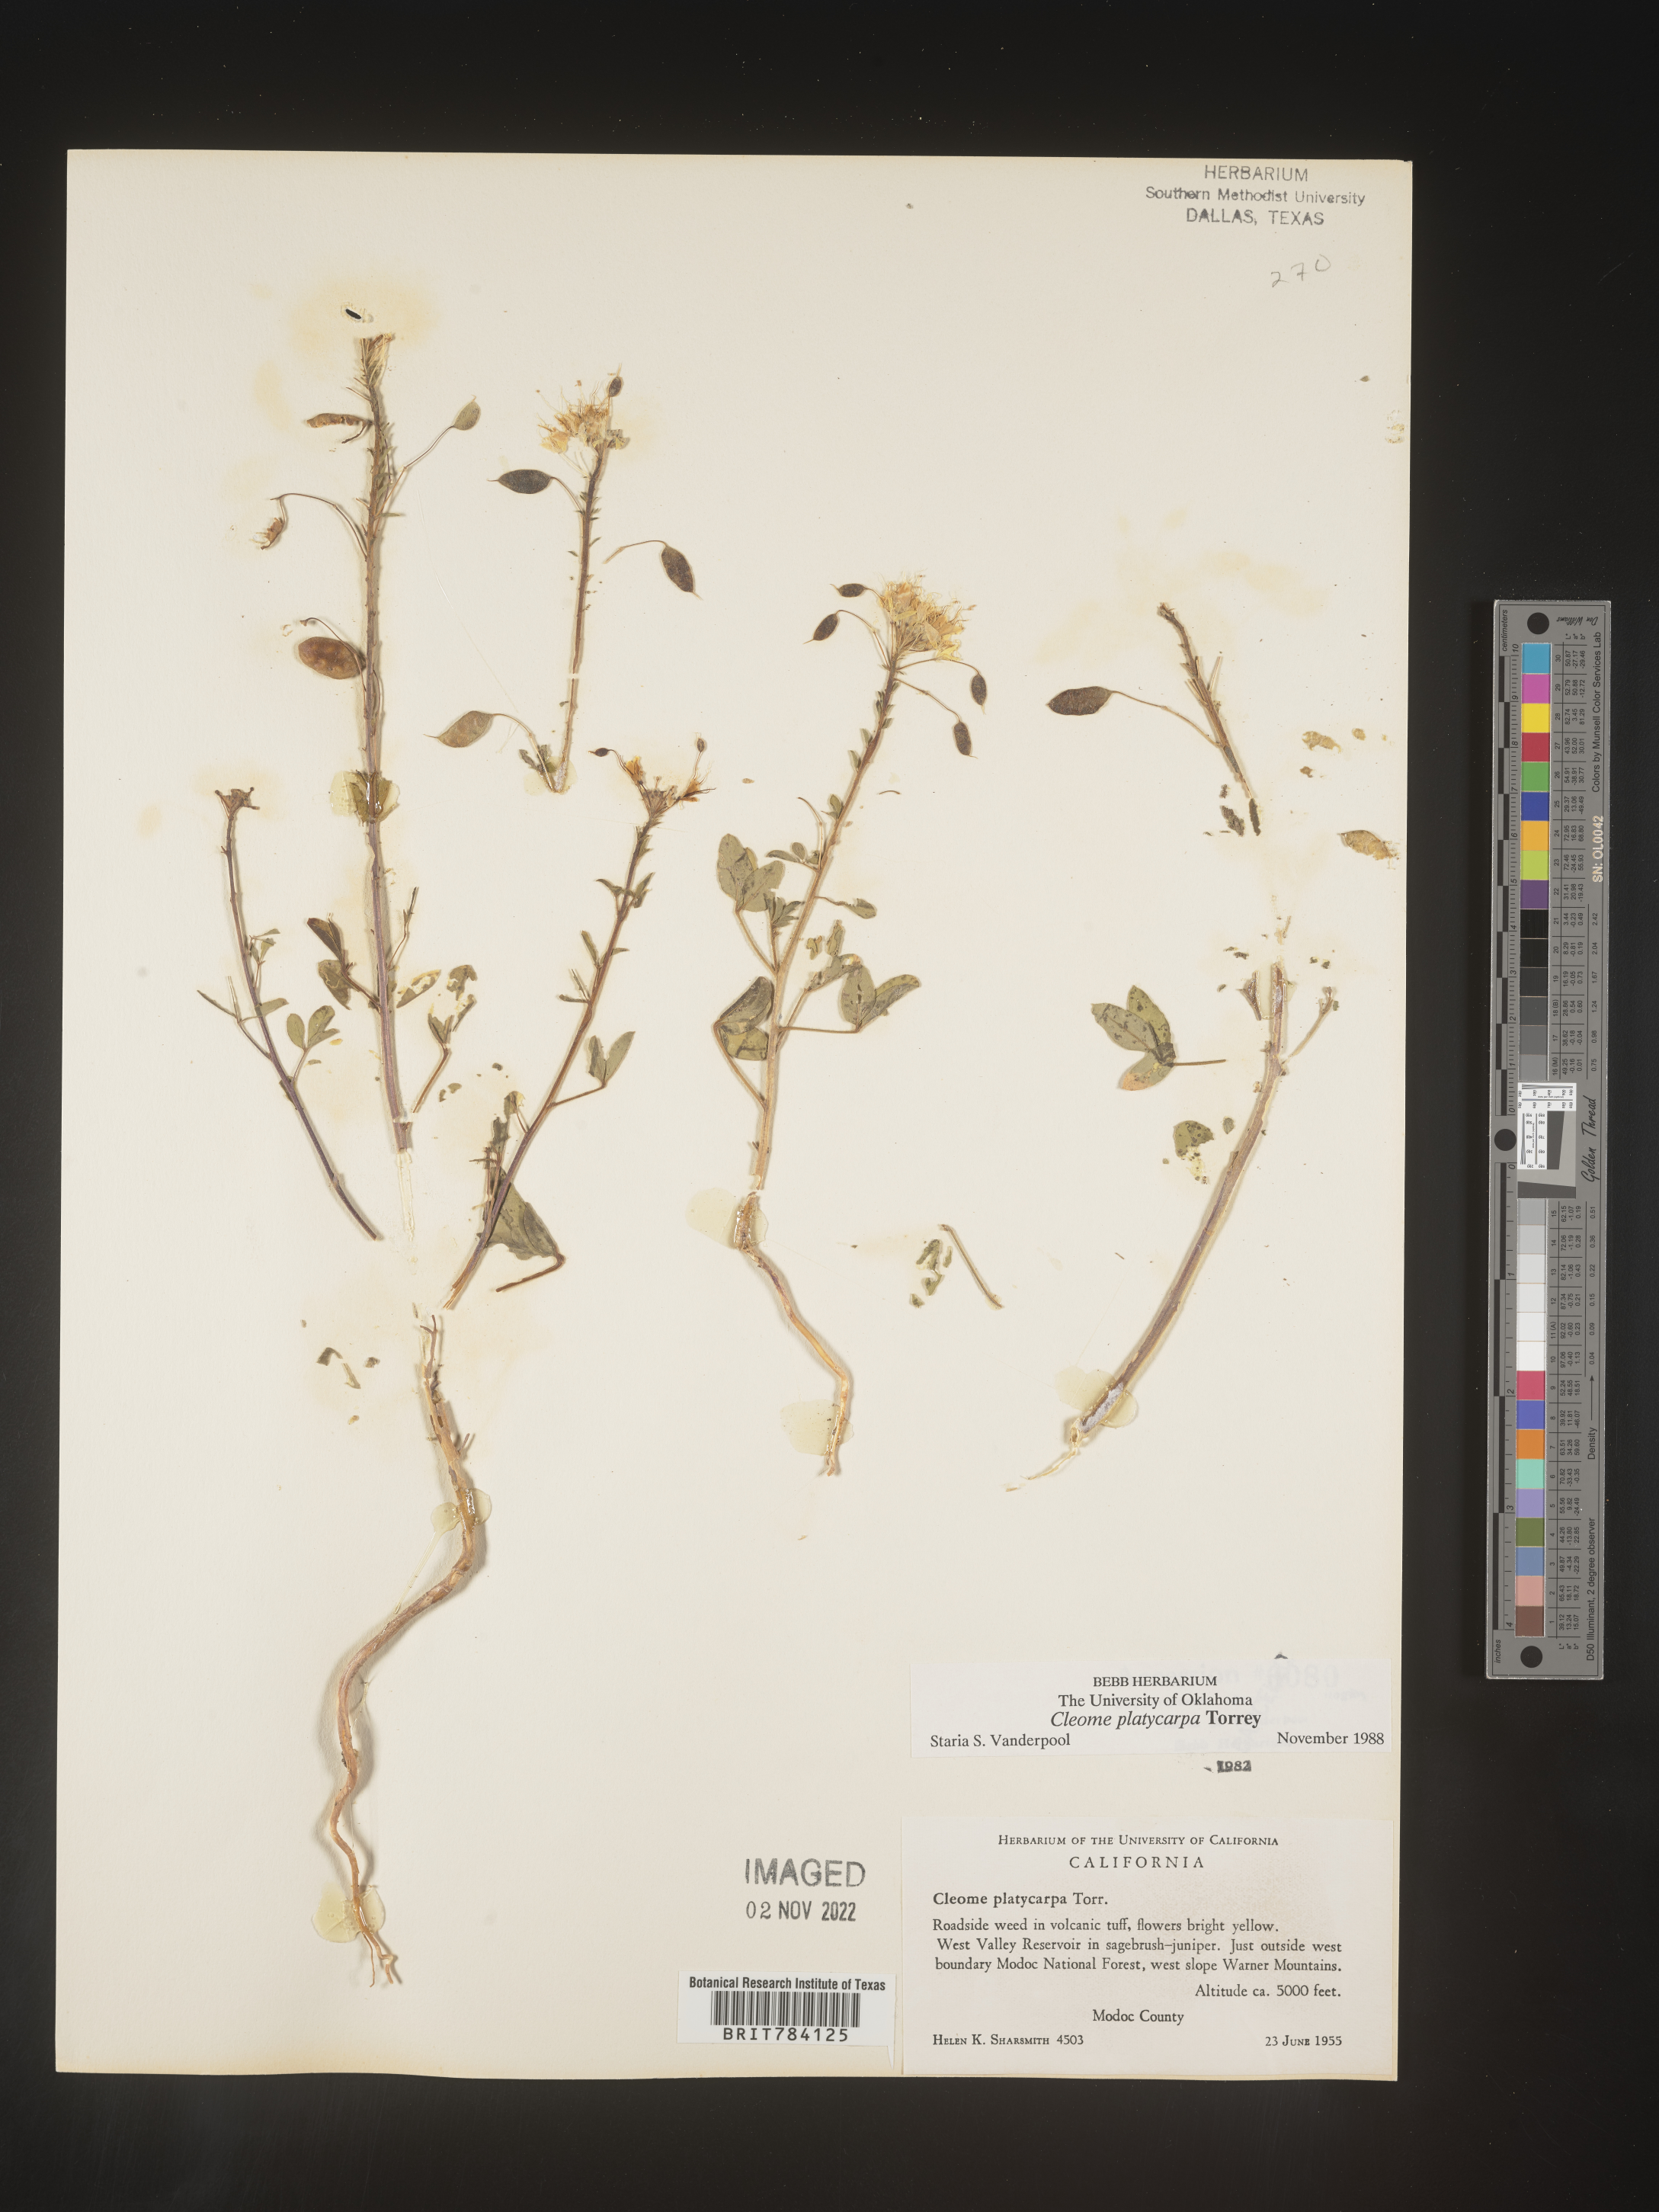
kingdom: Plantae
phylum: Tracheophyta
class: Magnoliopsida
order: Brassicales
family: Cleomaceae
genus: Cleome
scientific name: Cleome
